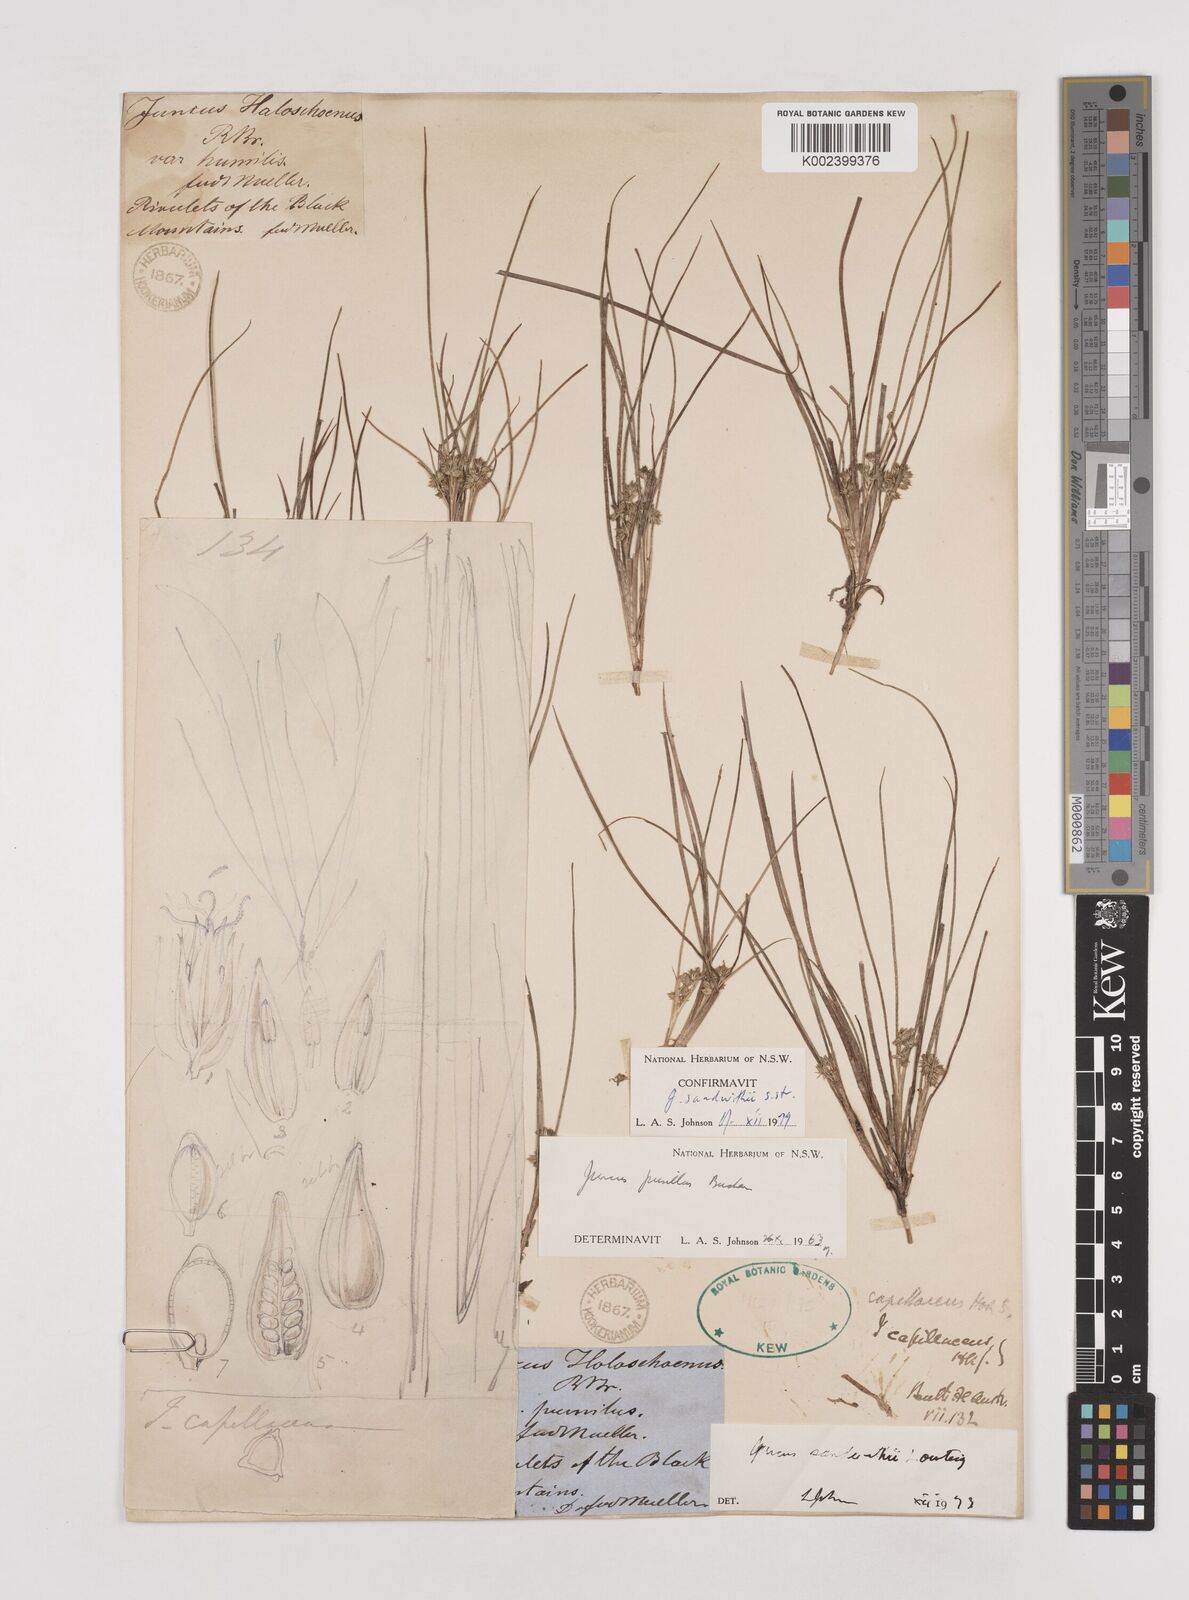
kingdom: Plantae
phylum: Tracheophyta
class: Liliopsida
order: Poales
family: Juncaceae
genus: Juncus
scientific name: Juncus sandwithii
